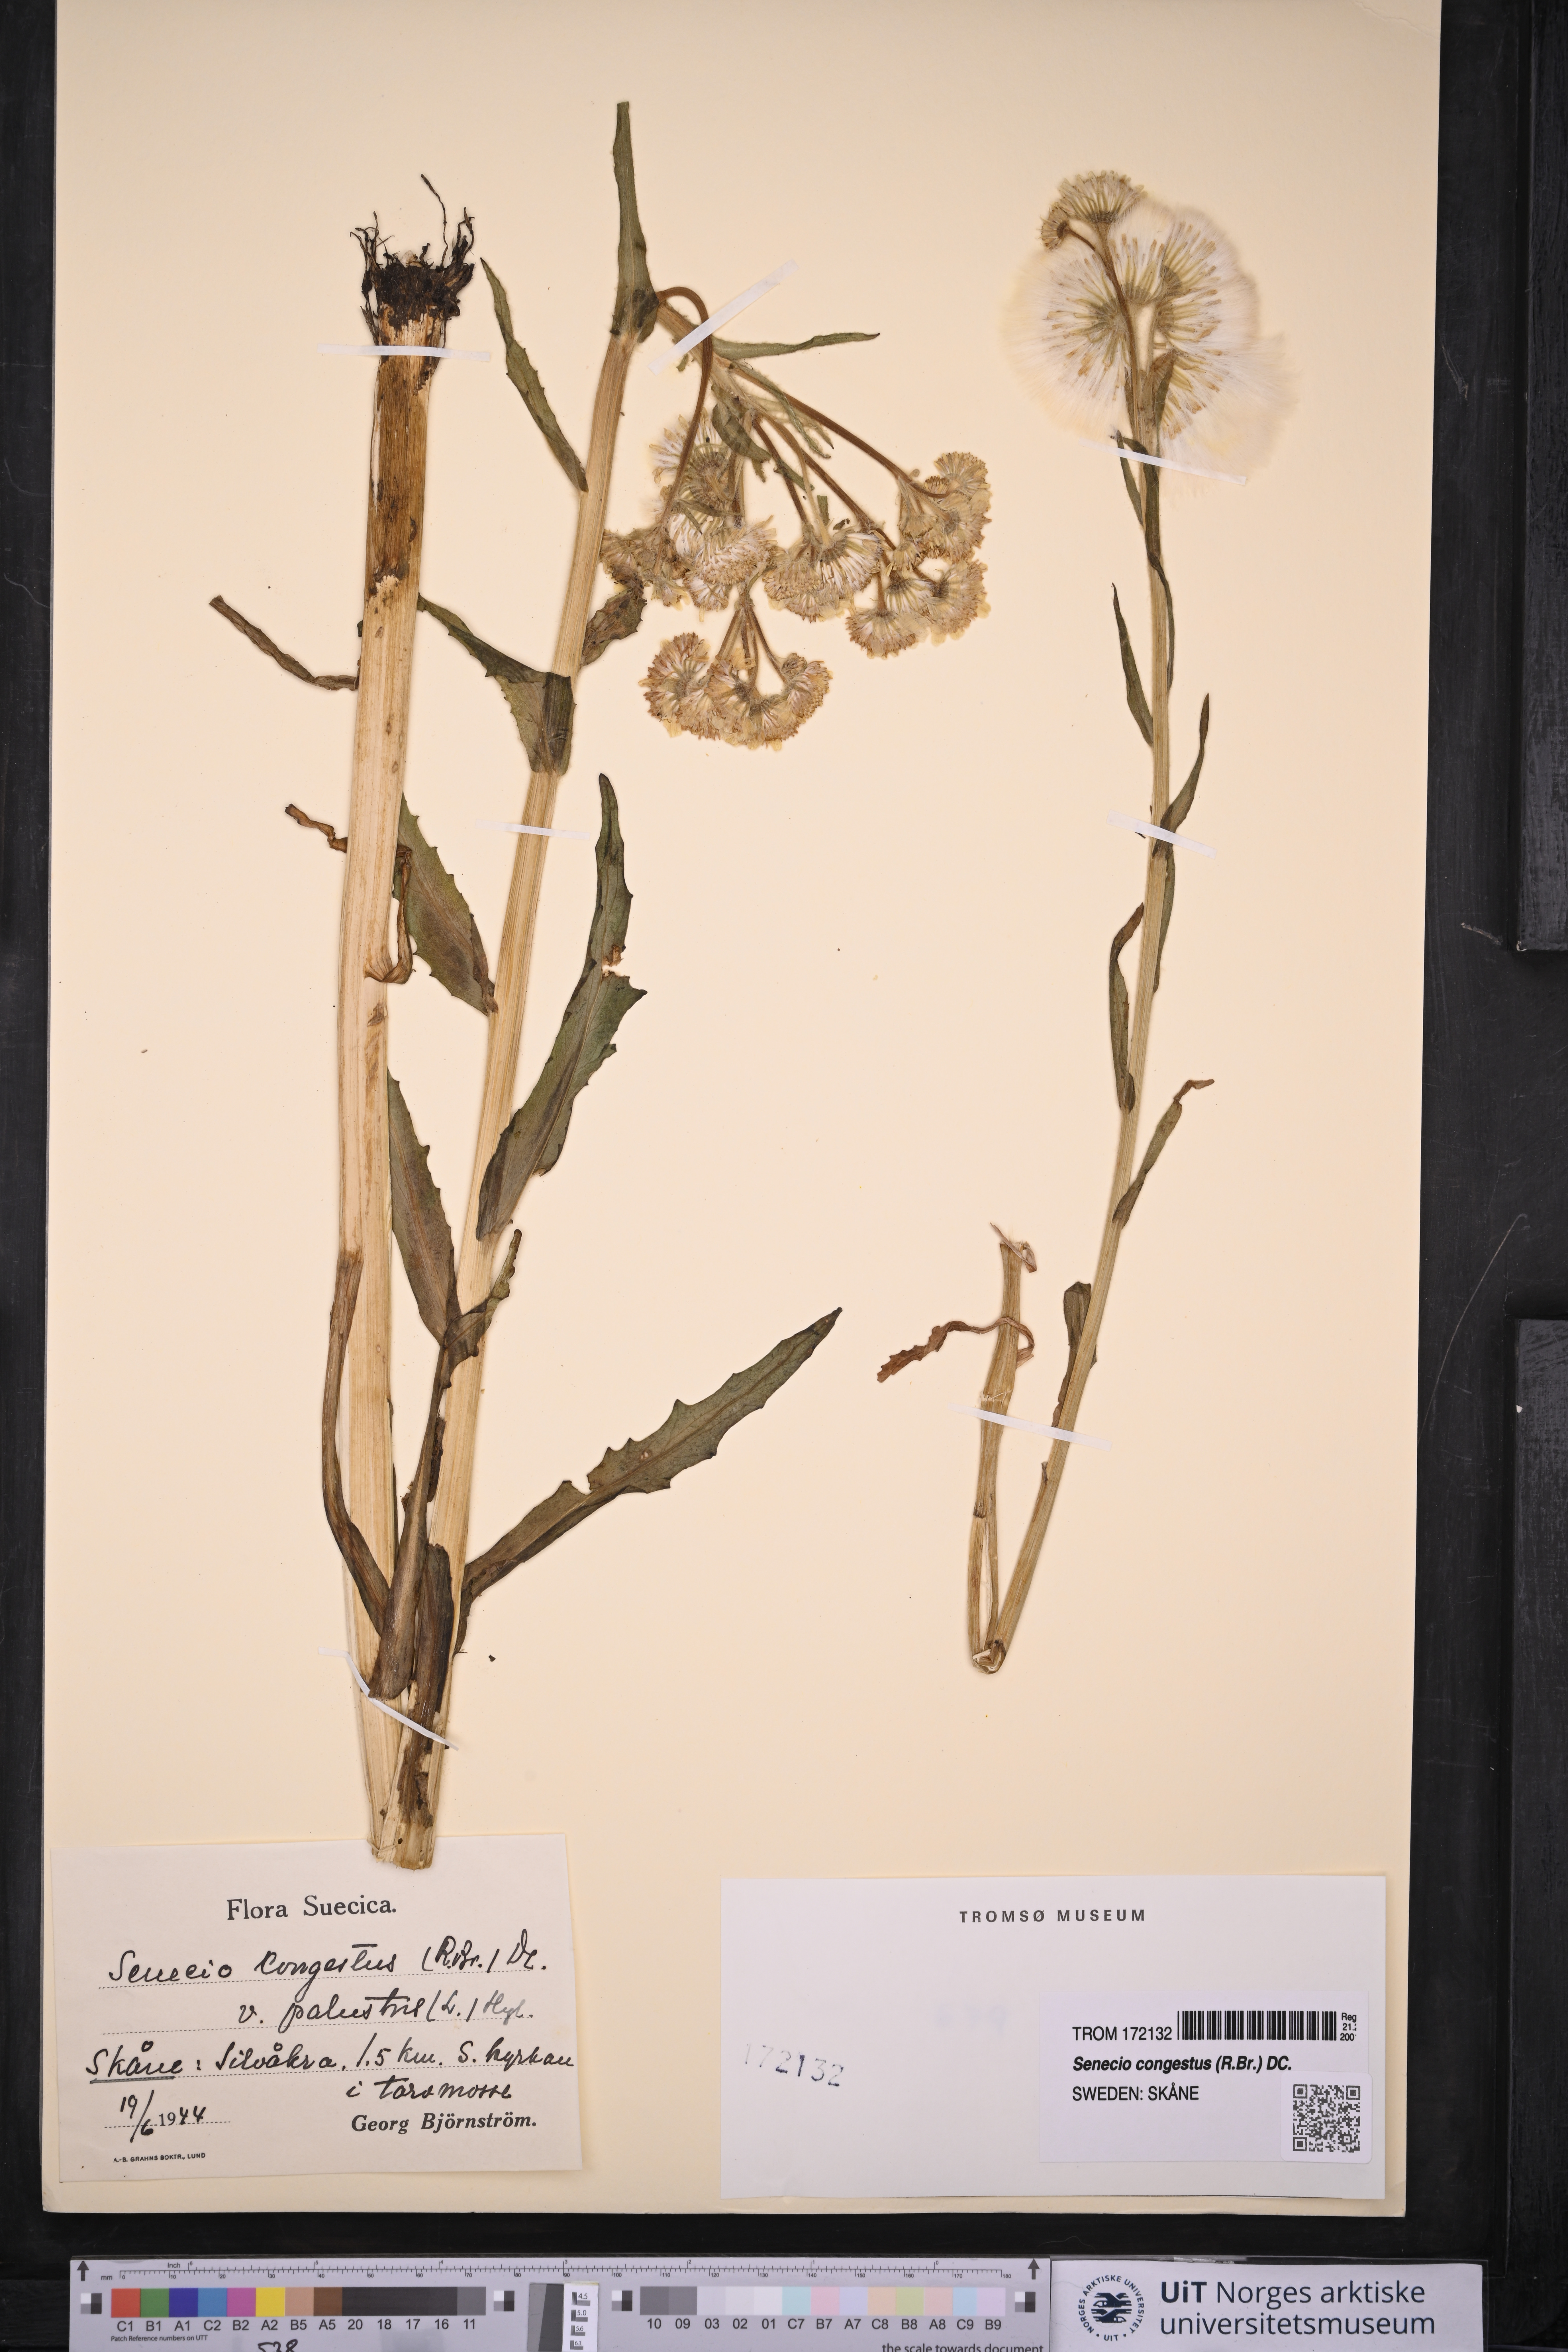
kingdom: Plantae
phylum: Tracheophyta
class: Magnoliopsida
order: Asterales
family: Asteraceae
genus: Tephroseris
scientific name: Tephroseris palustris
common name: Marsh fleawort
